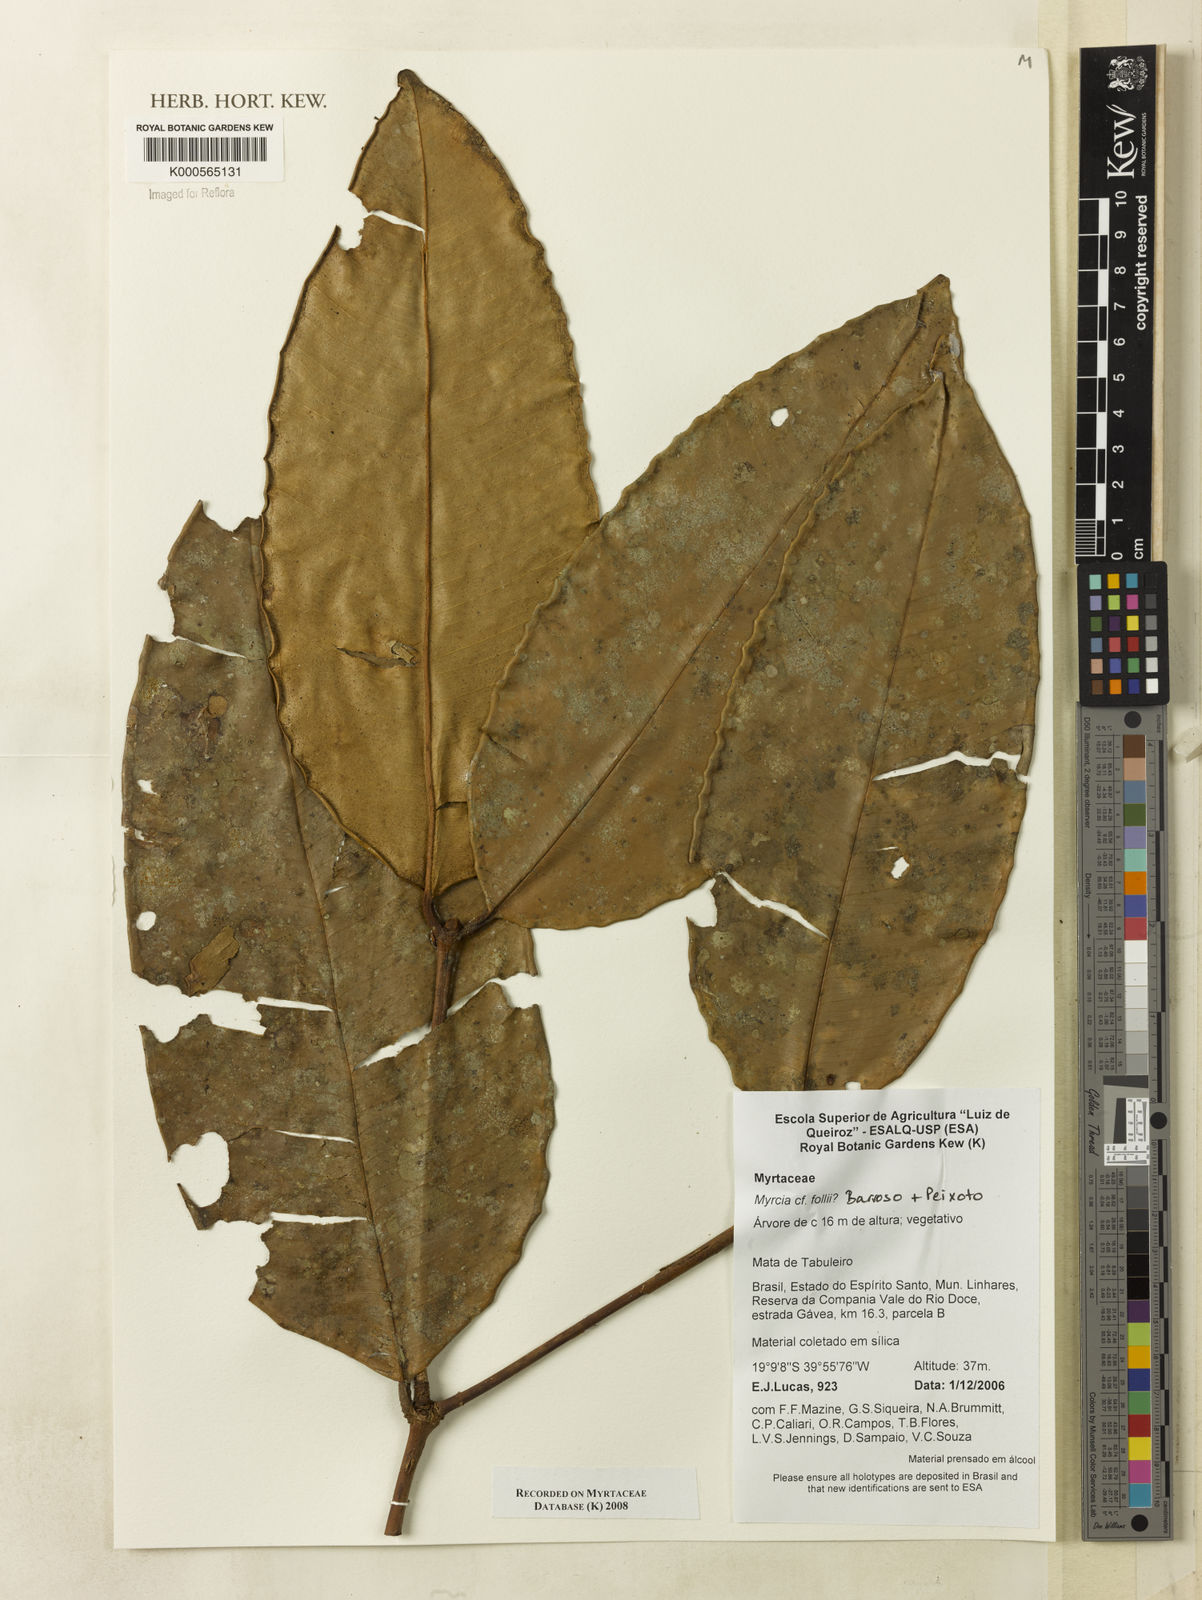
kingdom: Plantae
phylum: Tracheophyta
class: Magnoliopsida
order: Myrtales
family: Myrtaceae
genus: Myrcia
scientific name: Myrcia follii
